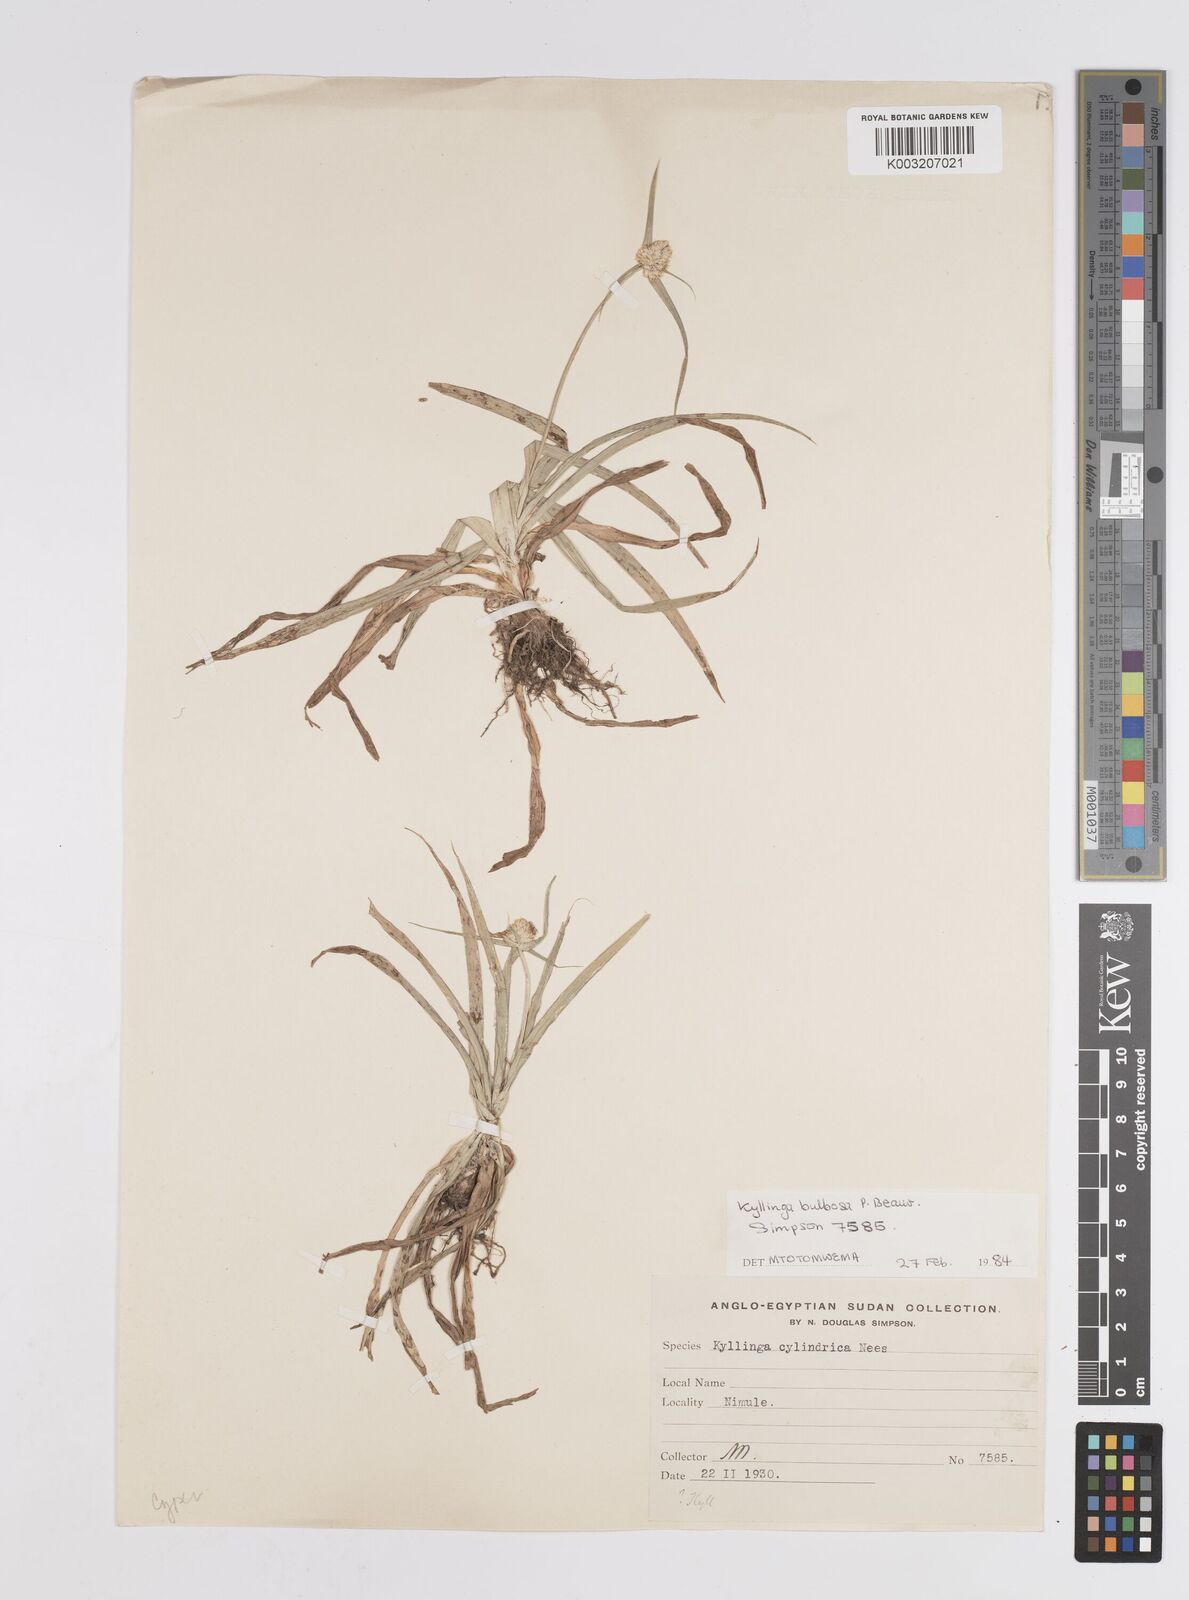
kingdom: Plantae
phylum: Tracheophyta
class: Liliopsida
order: Poales
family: Cyperaceae
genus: Cyperus
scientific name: Cyperus
